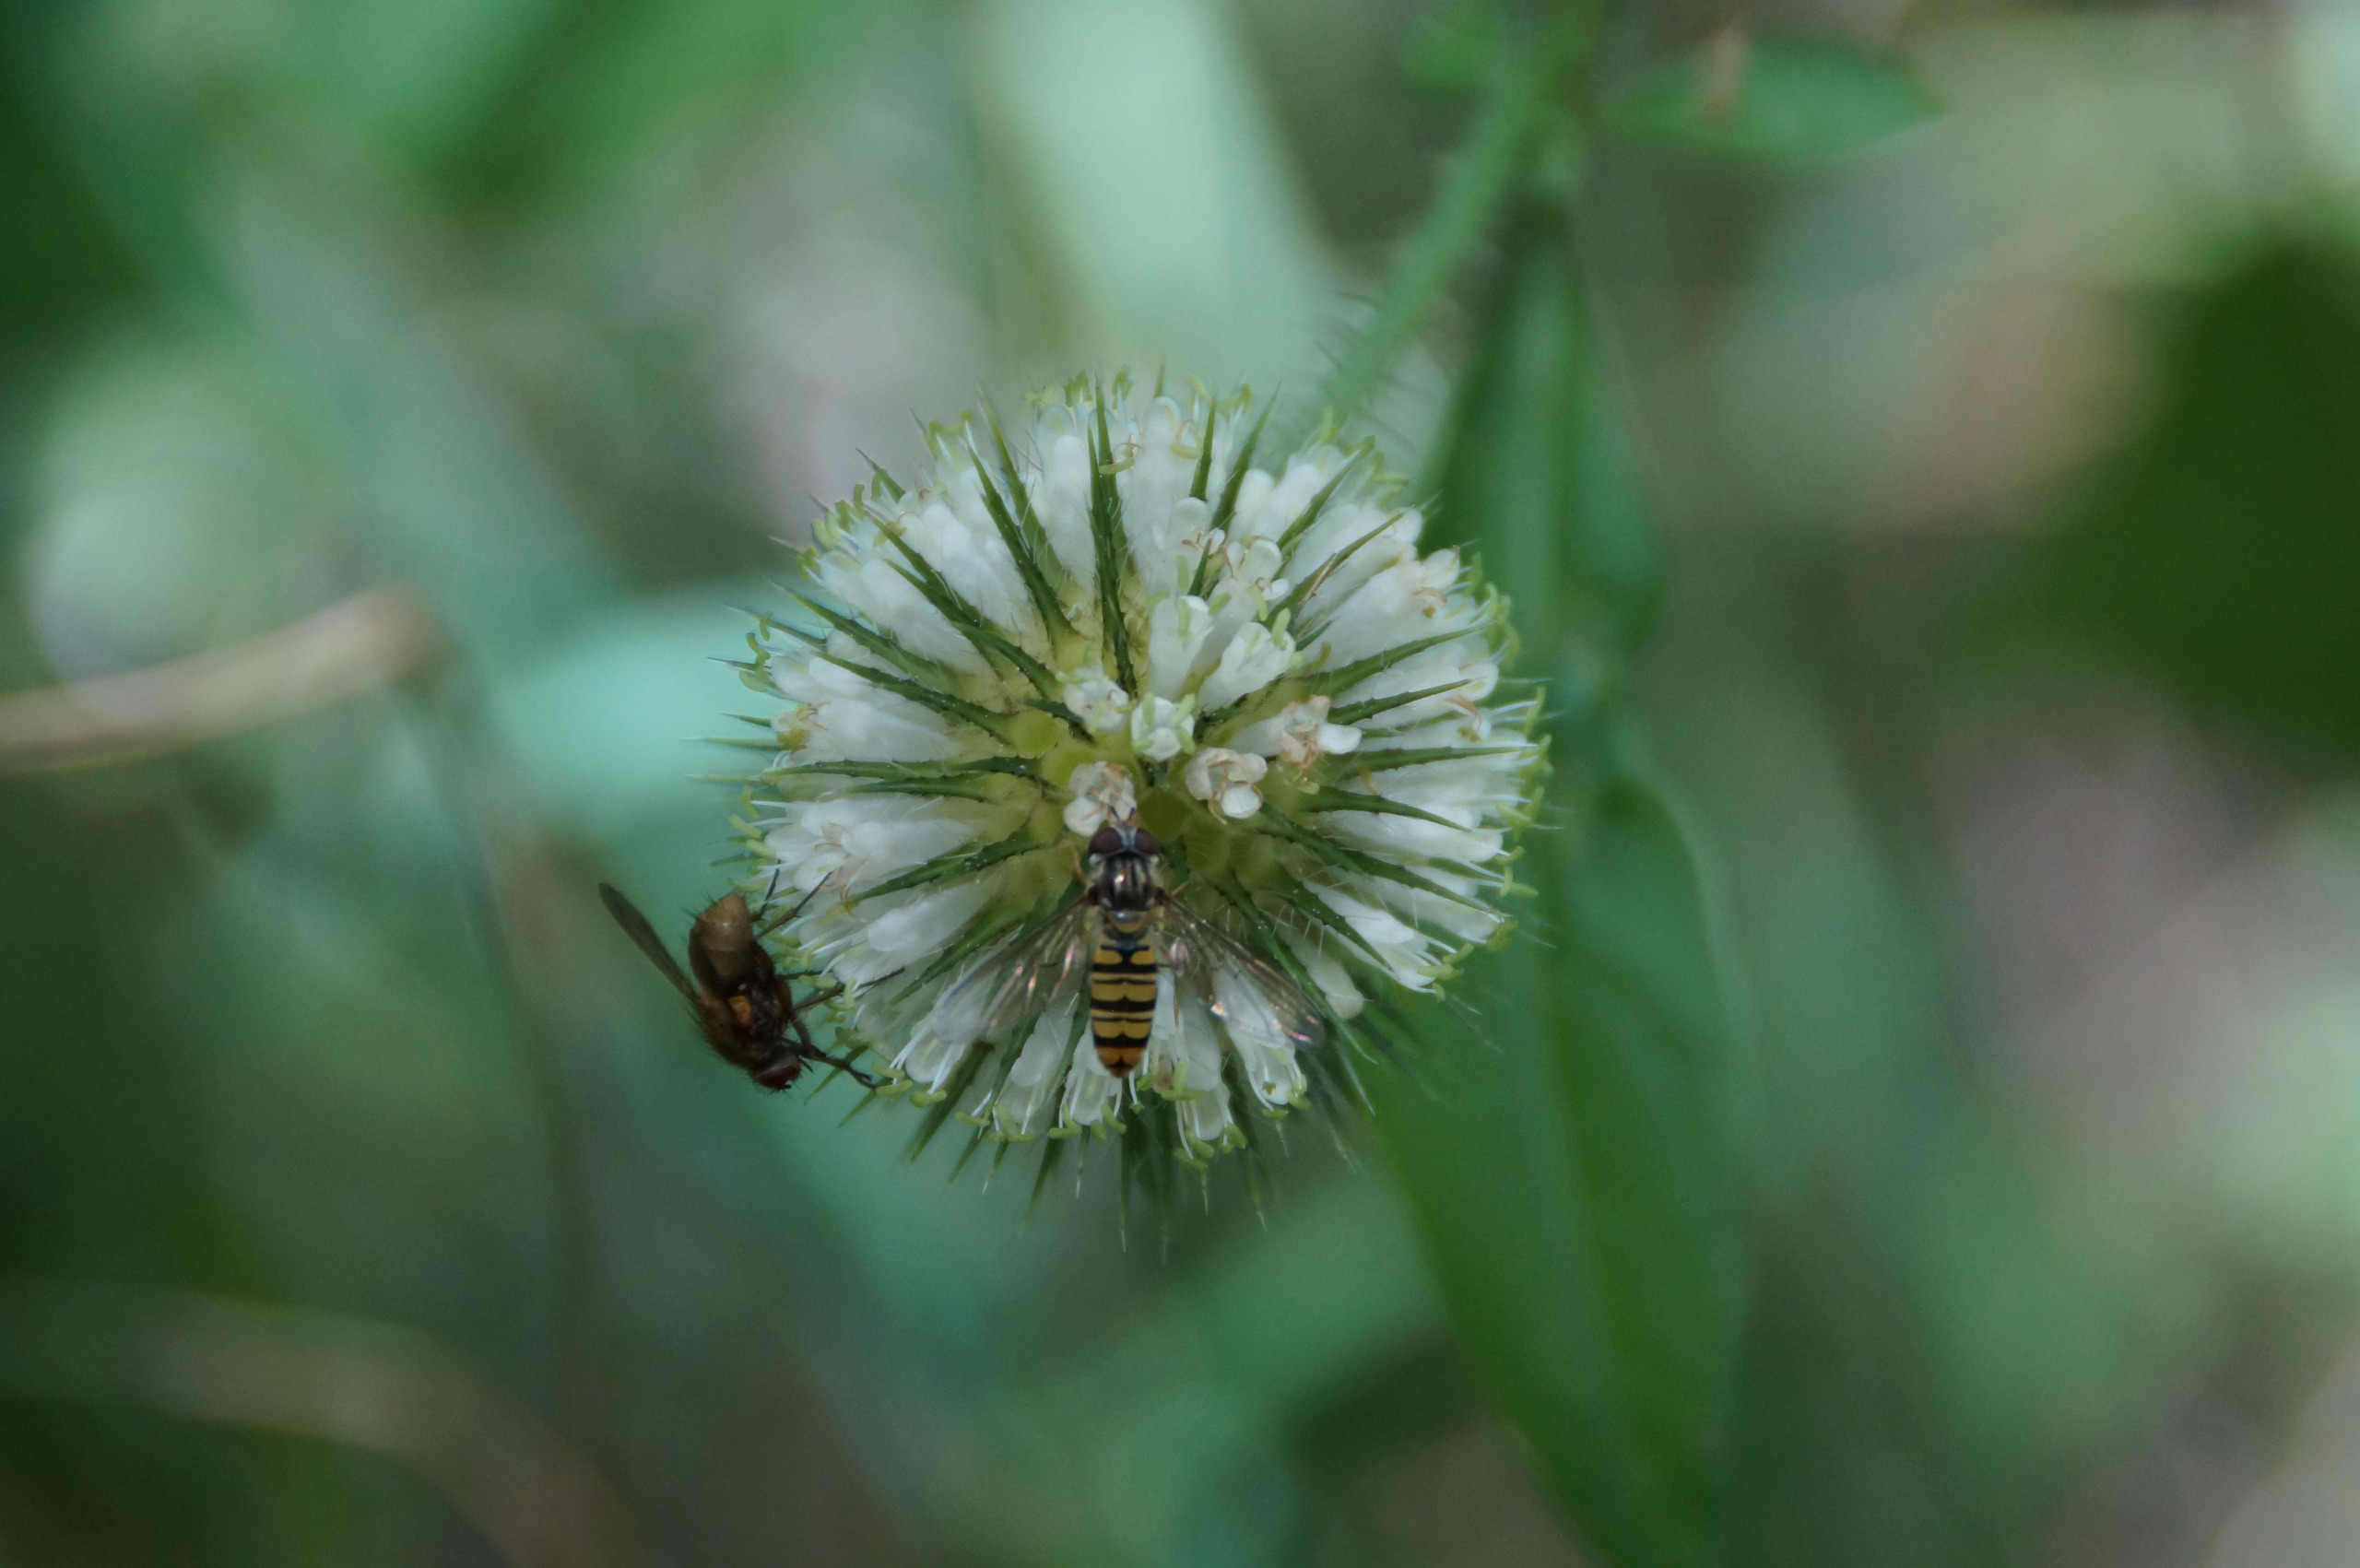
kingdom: Animalia
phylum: Arthropoda
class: Insecta
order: Diptera
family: Syrphidae
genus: Episyrphus
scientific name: Episyrphus balteatus
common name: Dobbeltbåndet svirreflue
